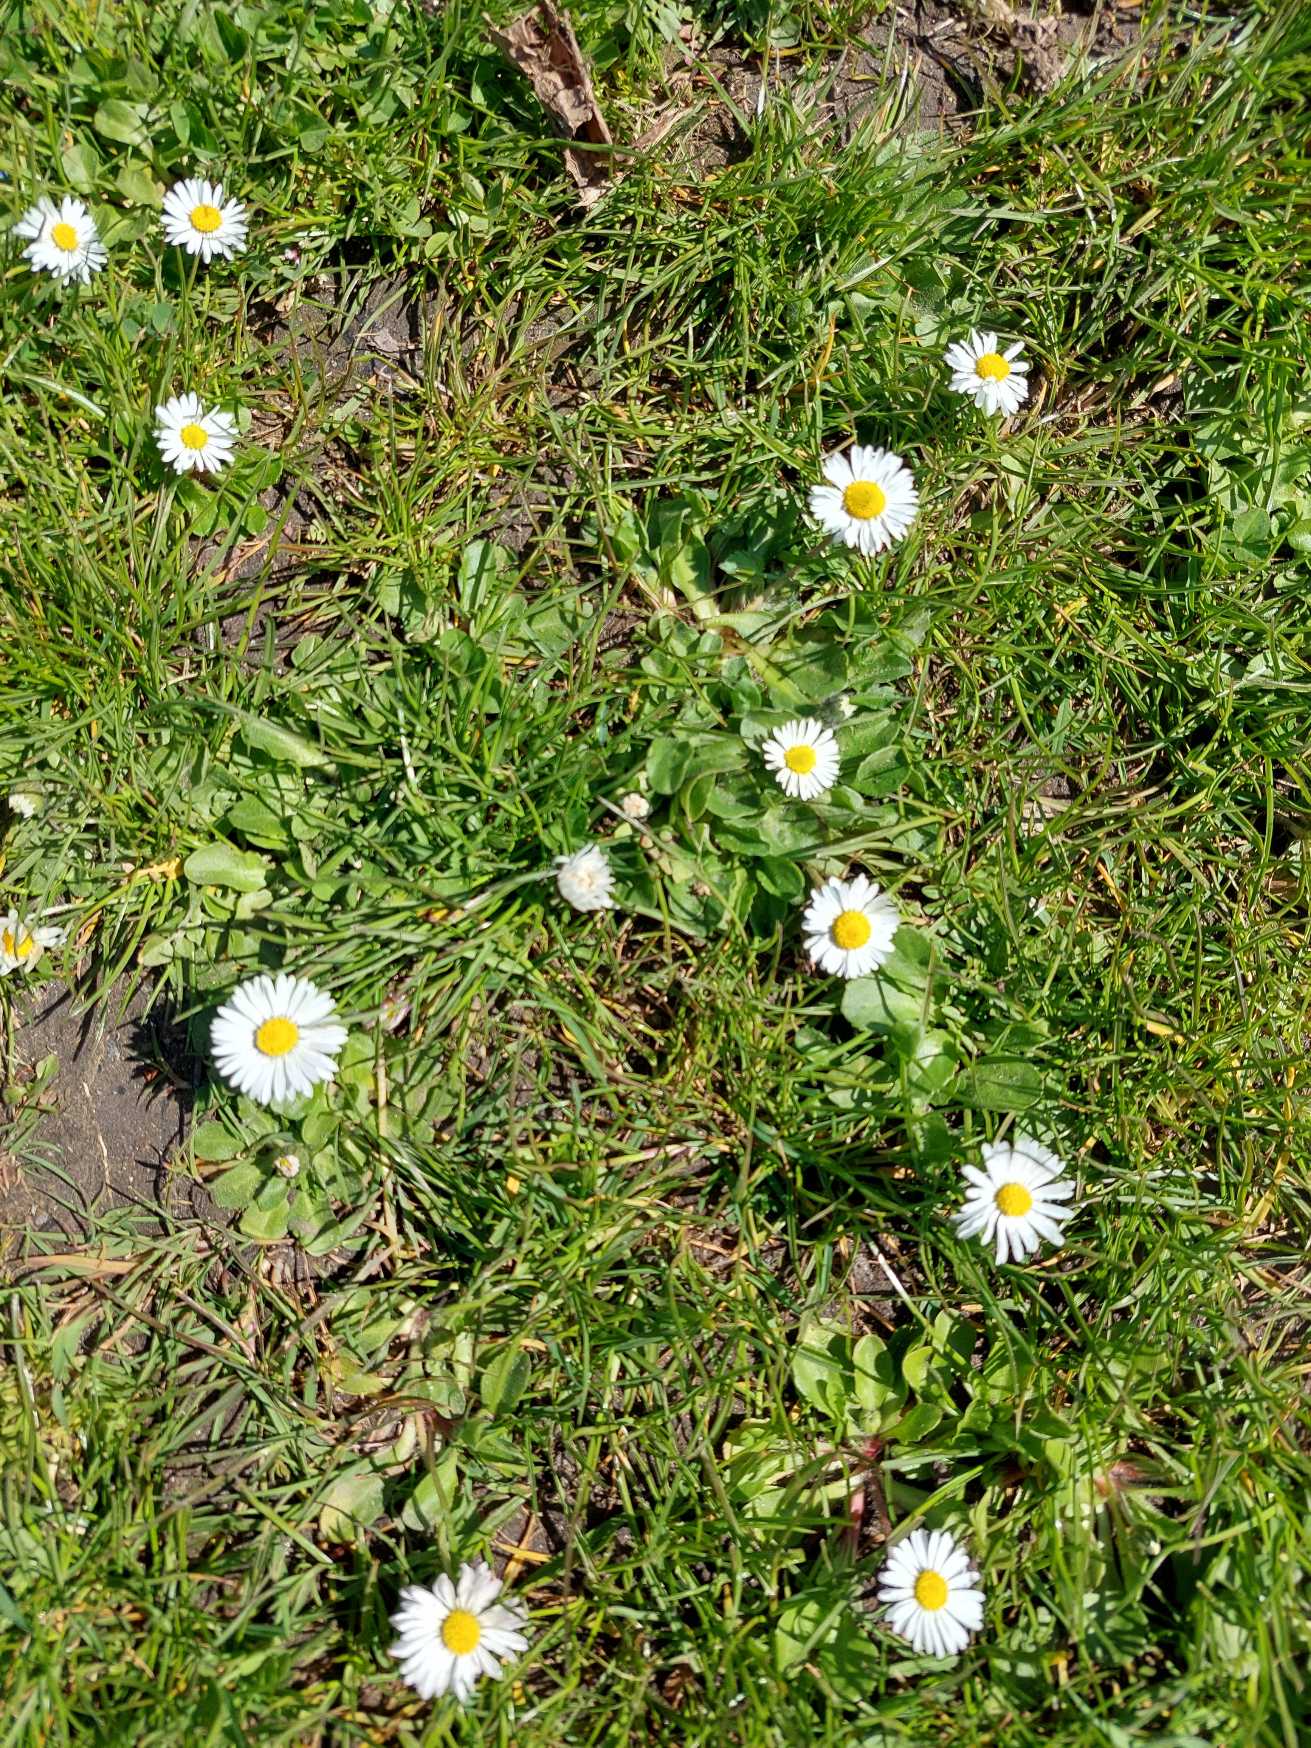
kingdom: Plantae
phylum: Tracheophyta
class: Magnoliopsida
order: Asterales
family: Asteraceae
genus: Bellis
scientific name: Bellis perennis
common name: Tusindfryd
